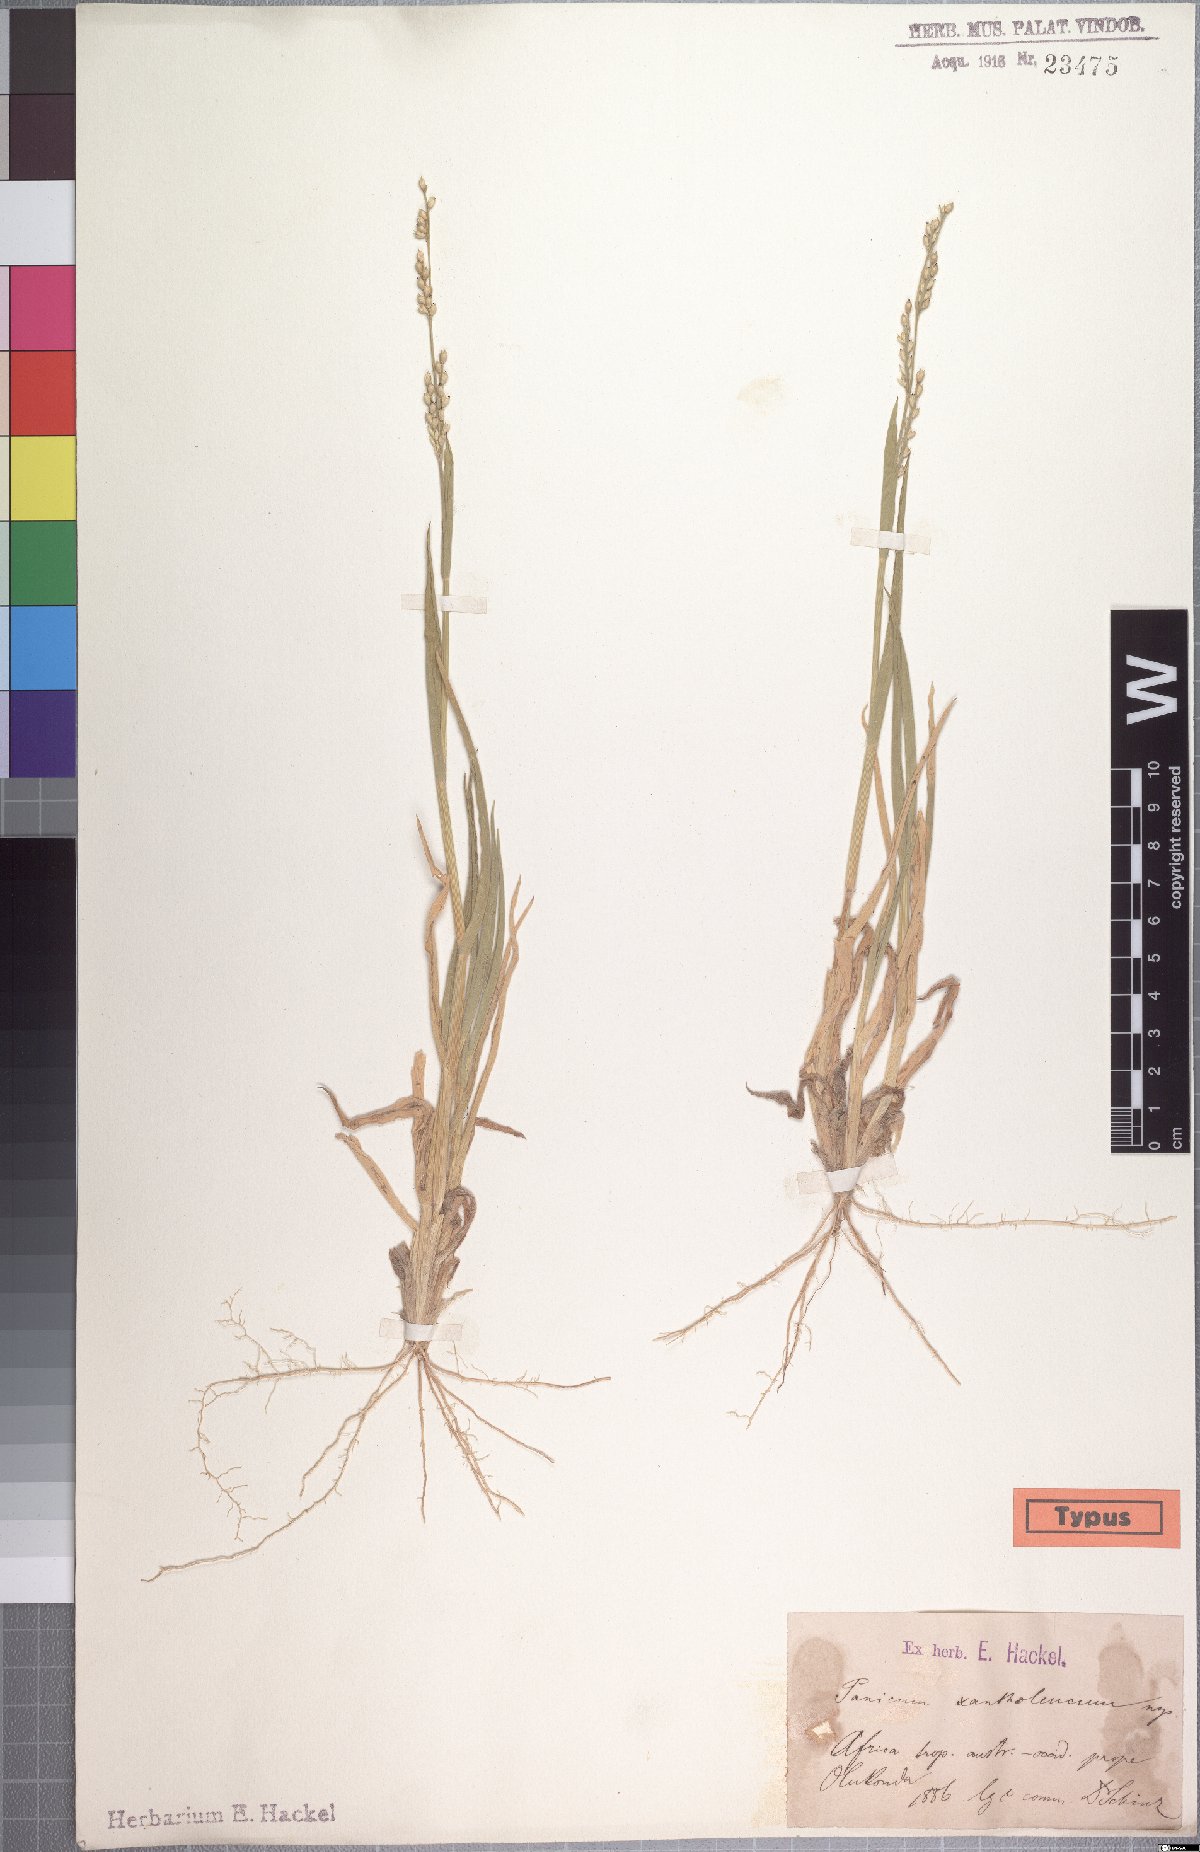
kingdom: Plantae
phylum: Tracheophyta
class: Liliopsida
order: Poales
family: Poaceae
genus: Urochloa
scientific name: Urochloa xantholeuca
